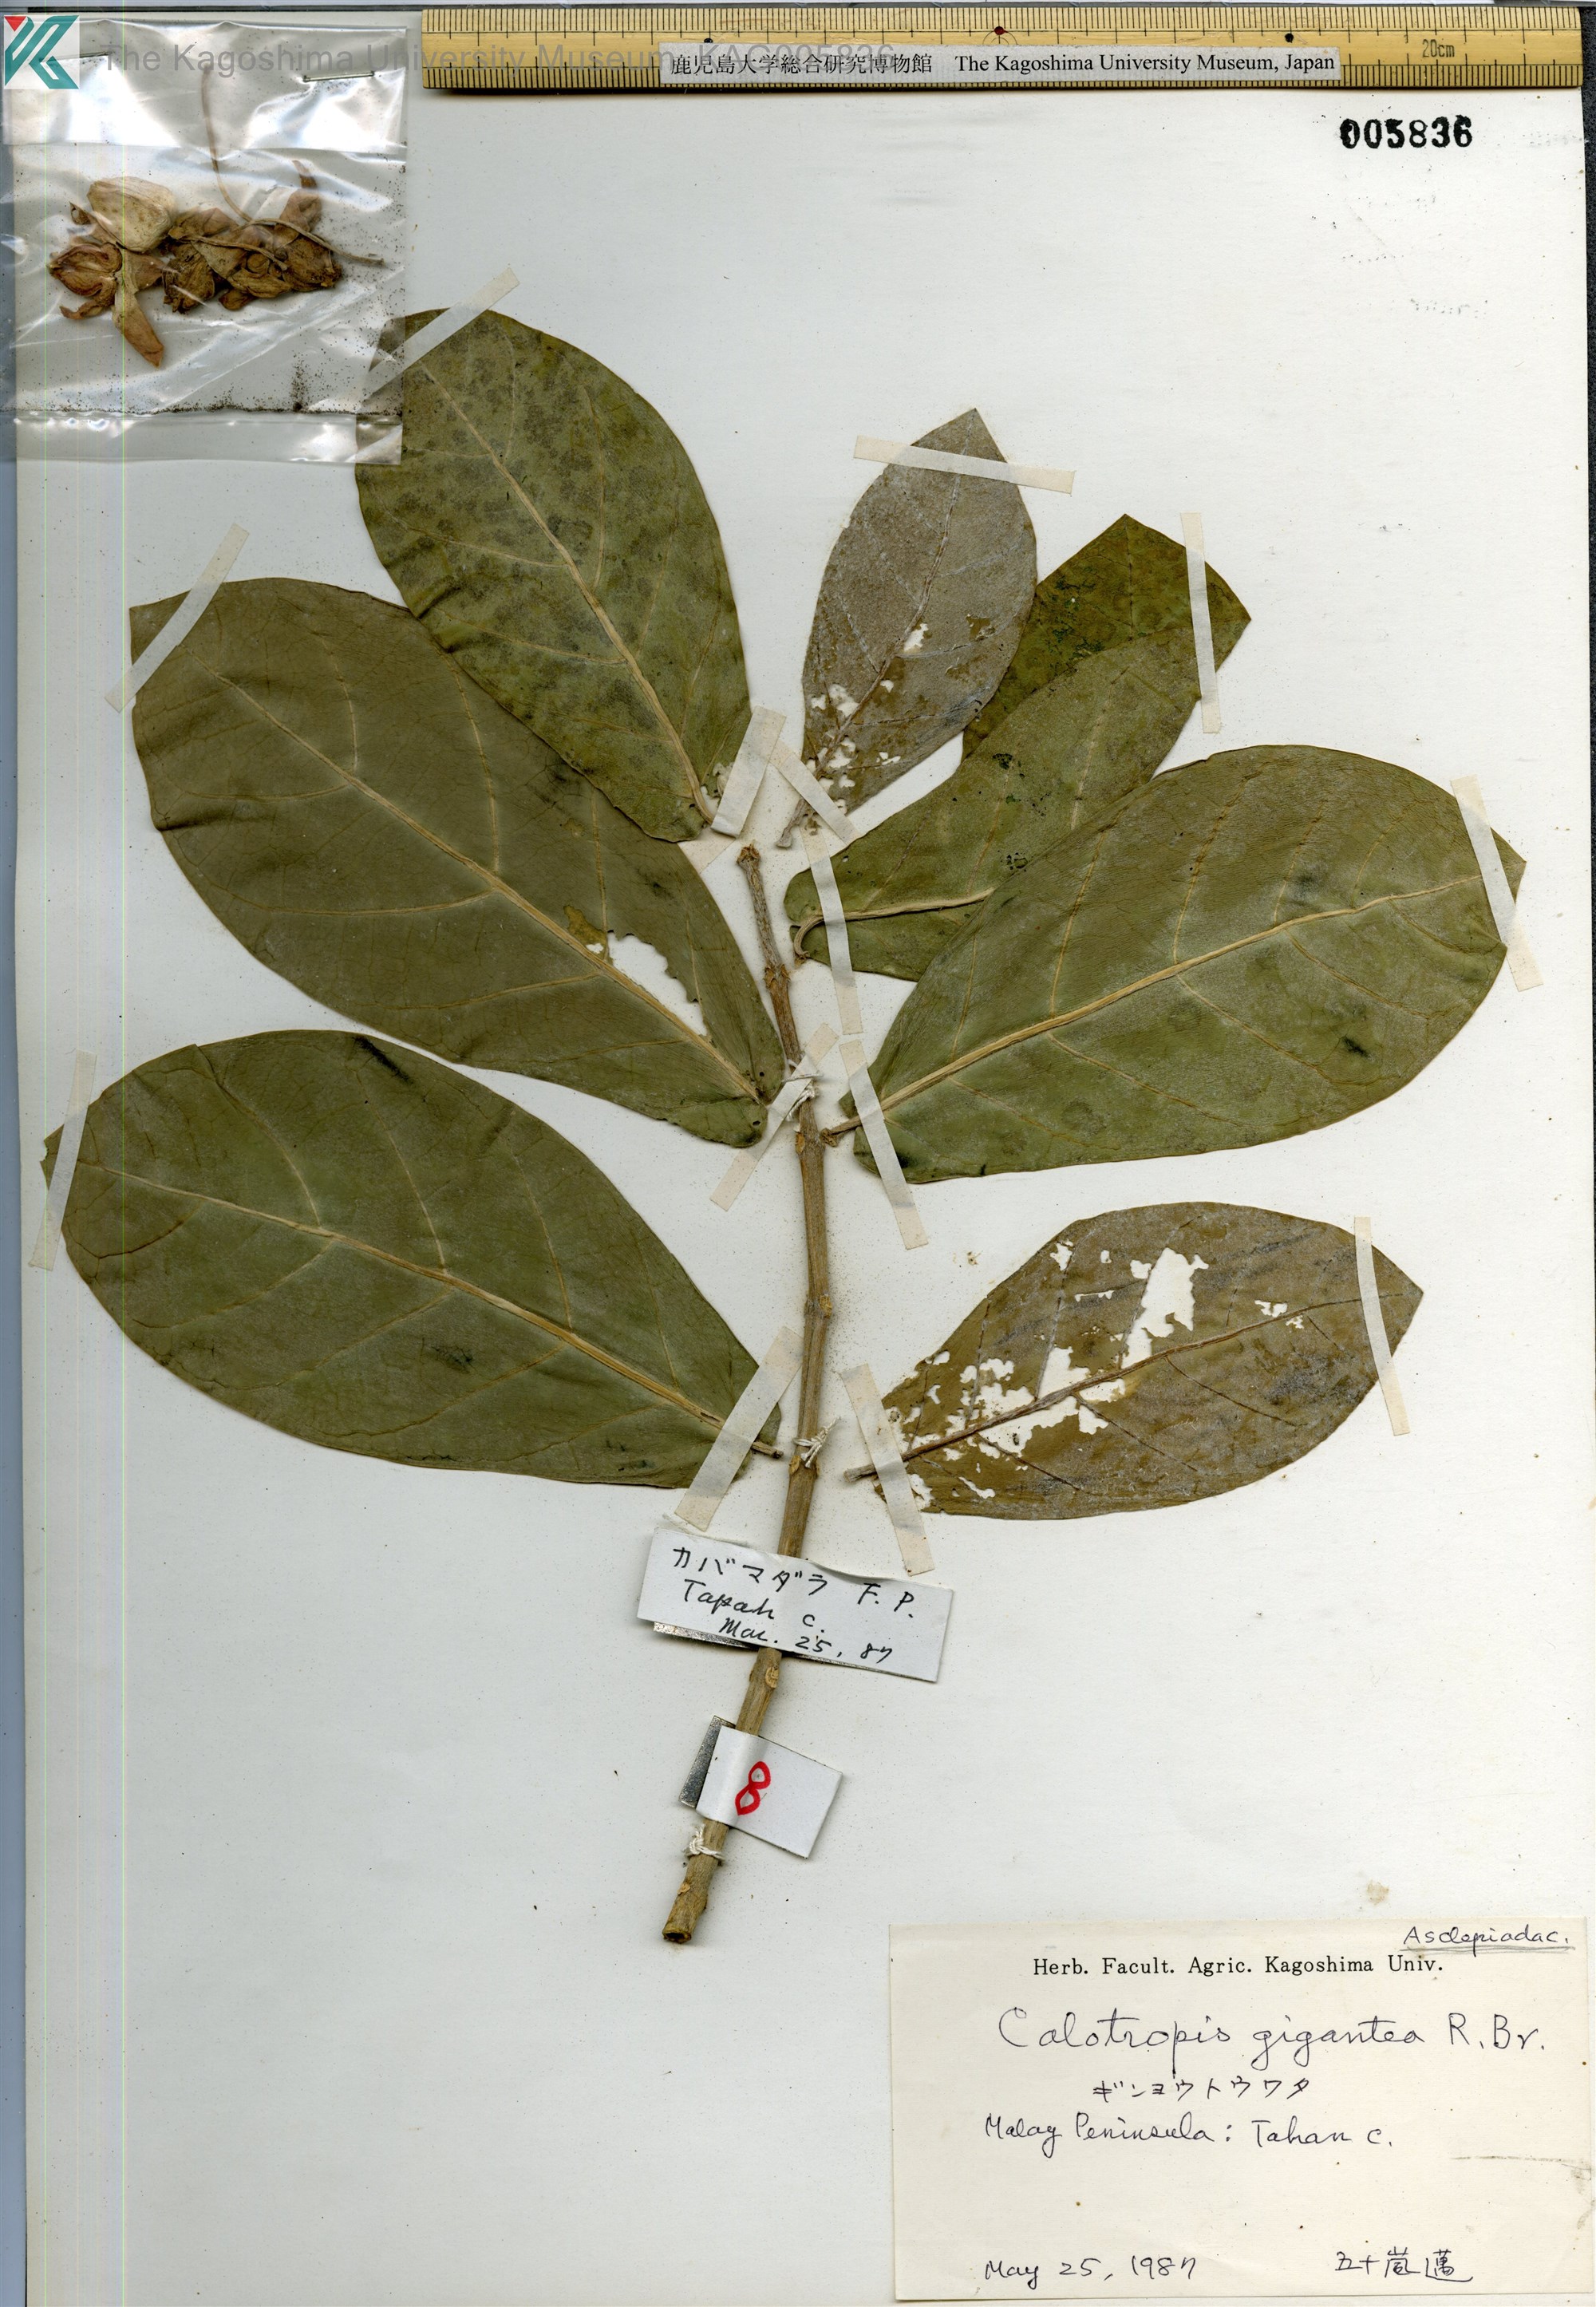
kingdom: Plantae
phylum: Tracheophyta
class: Magnoliopsida
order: Gentianales
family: Apocynaceae
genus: Calotropis
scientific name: Calotropis gigantea
